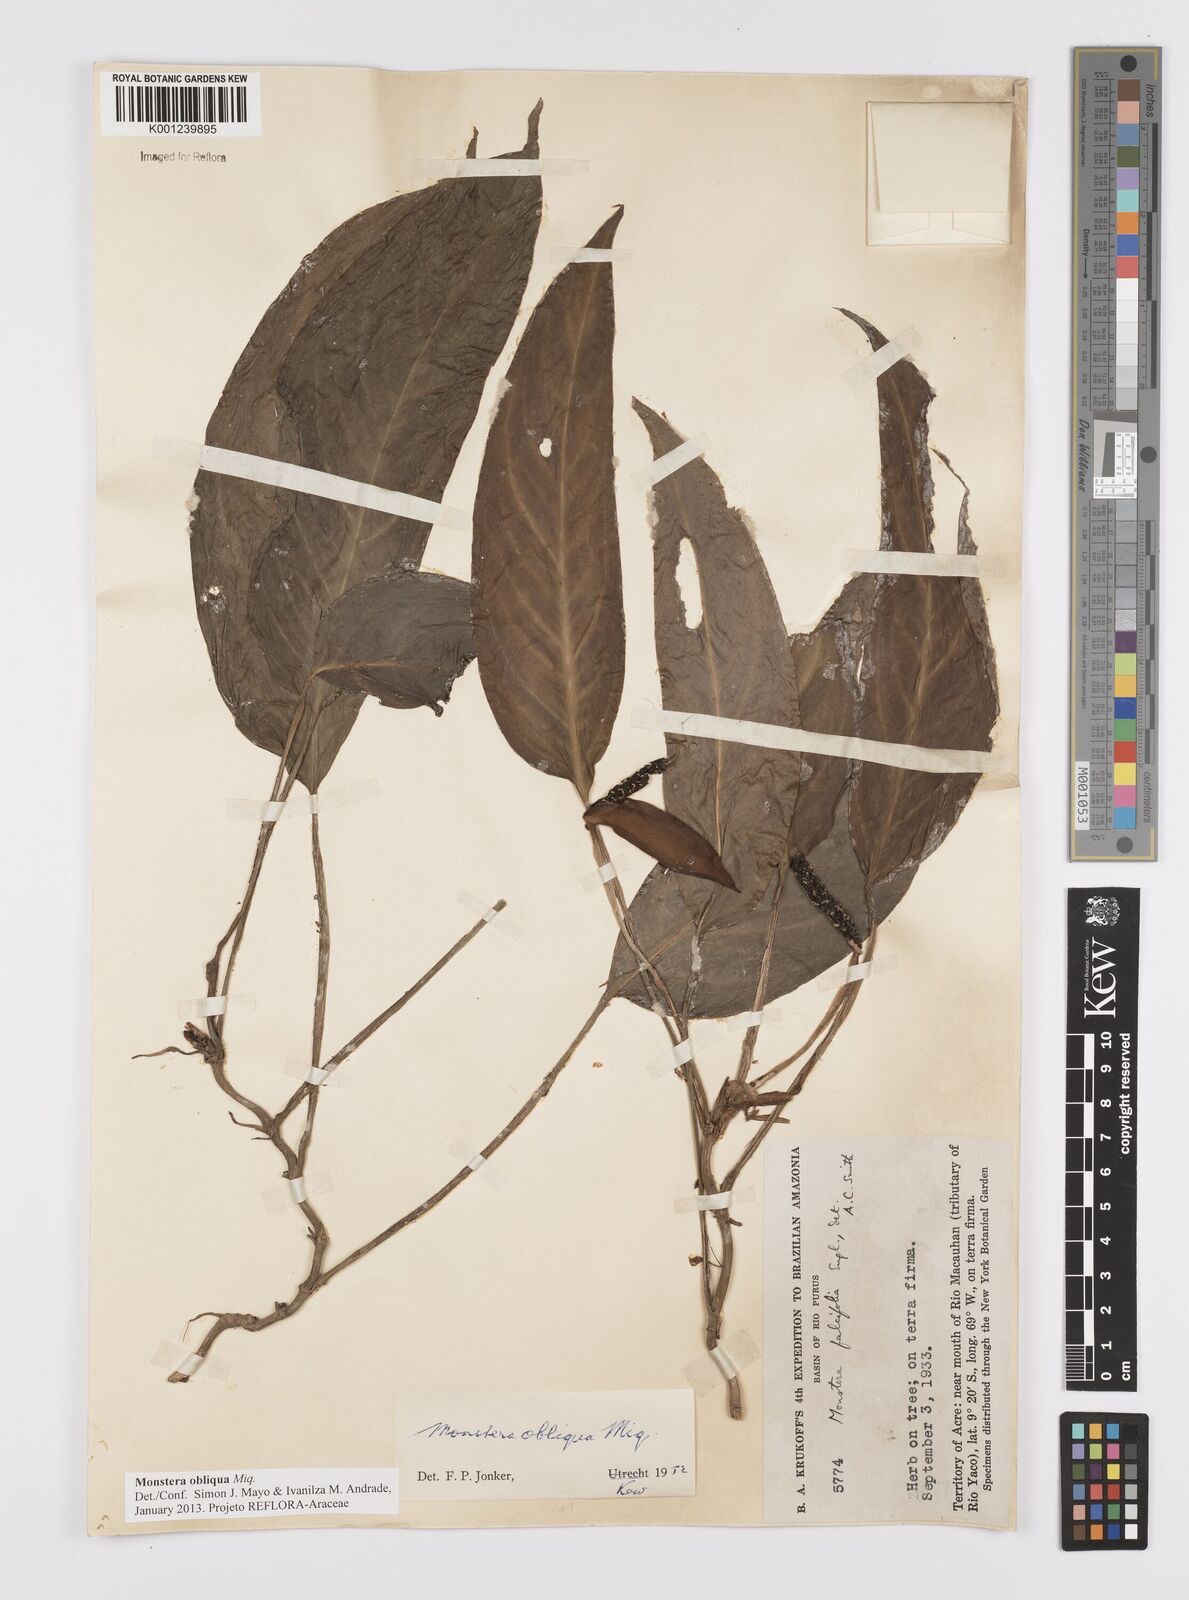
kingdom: Plantae
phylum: Tracheophyta
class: Liliopsida
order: Alismatales
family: Araceae
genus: Monstera
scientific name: Monstera obliqua
